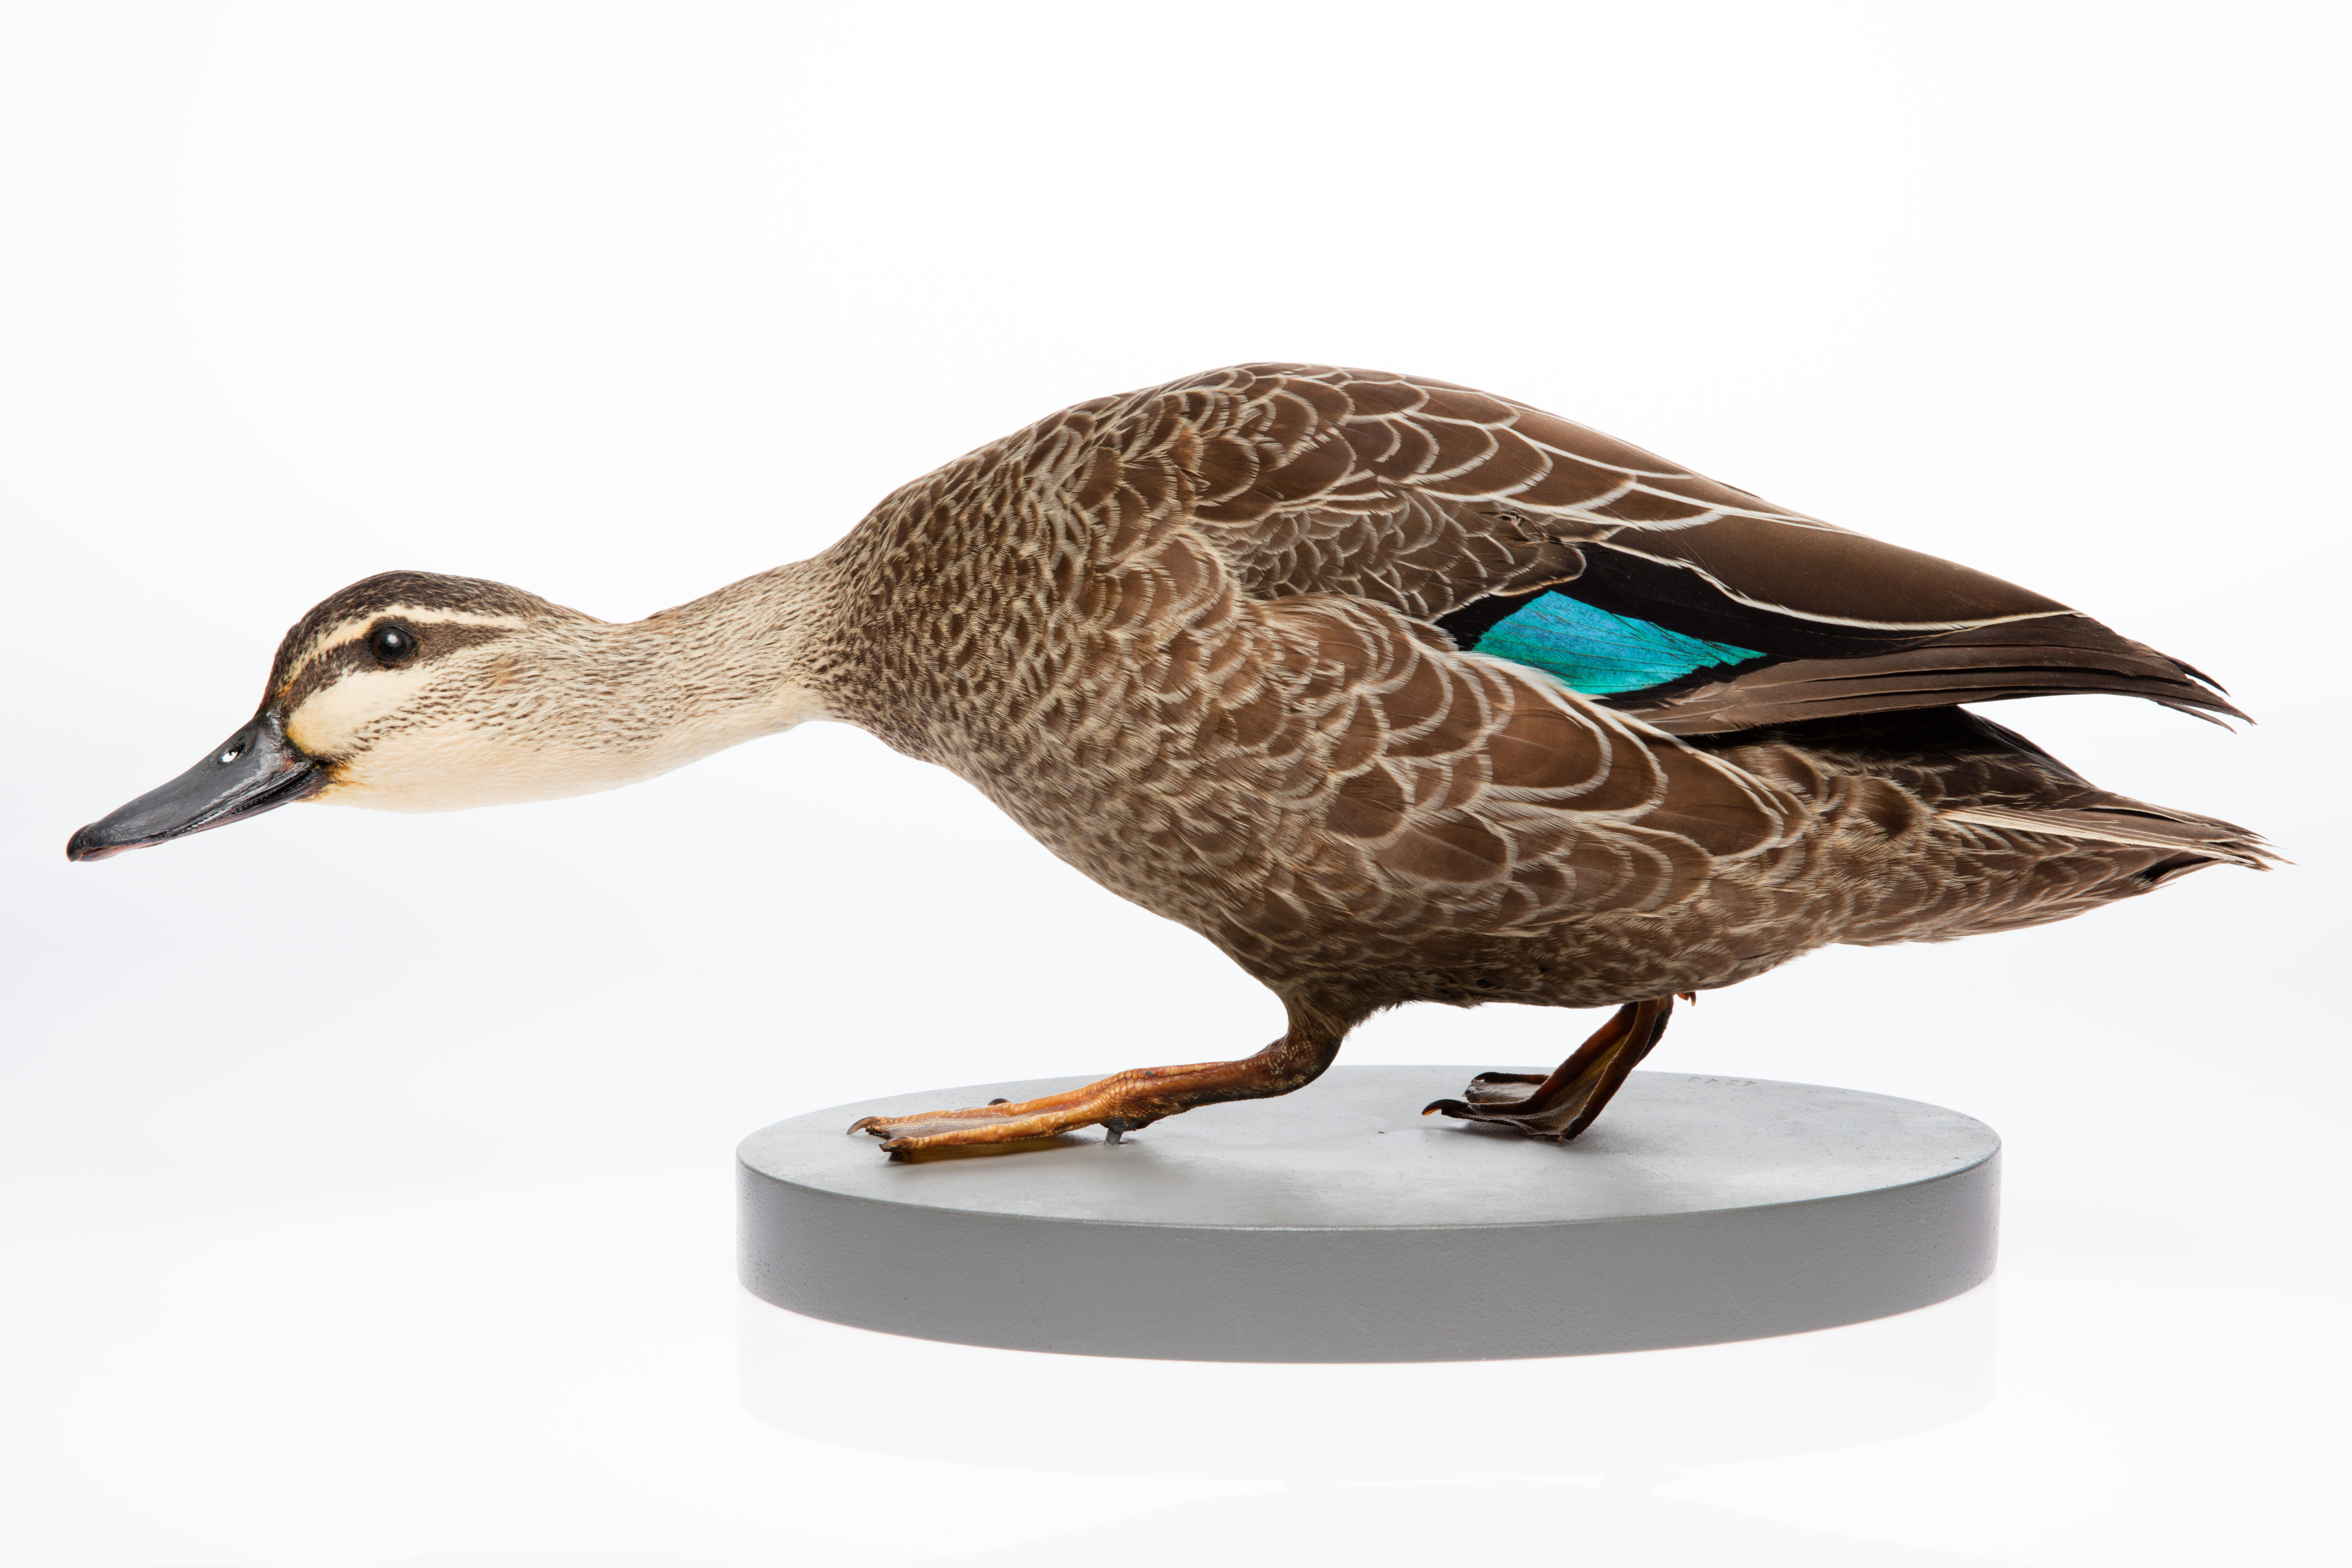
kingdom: Animalia
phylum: Chordata
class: Aves
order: Anseriformes
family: Anatidae
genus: Anas
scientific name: Anas superciliosa
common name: Pacific black duck
